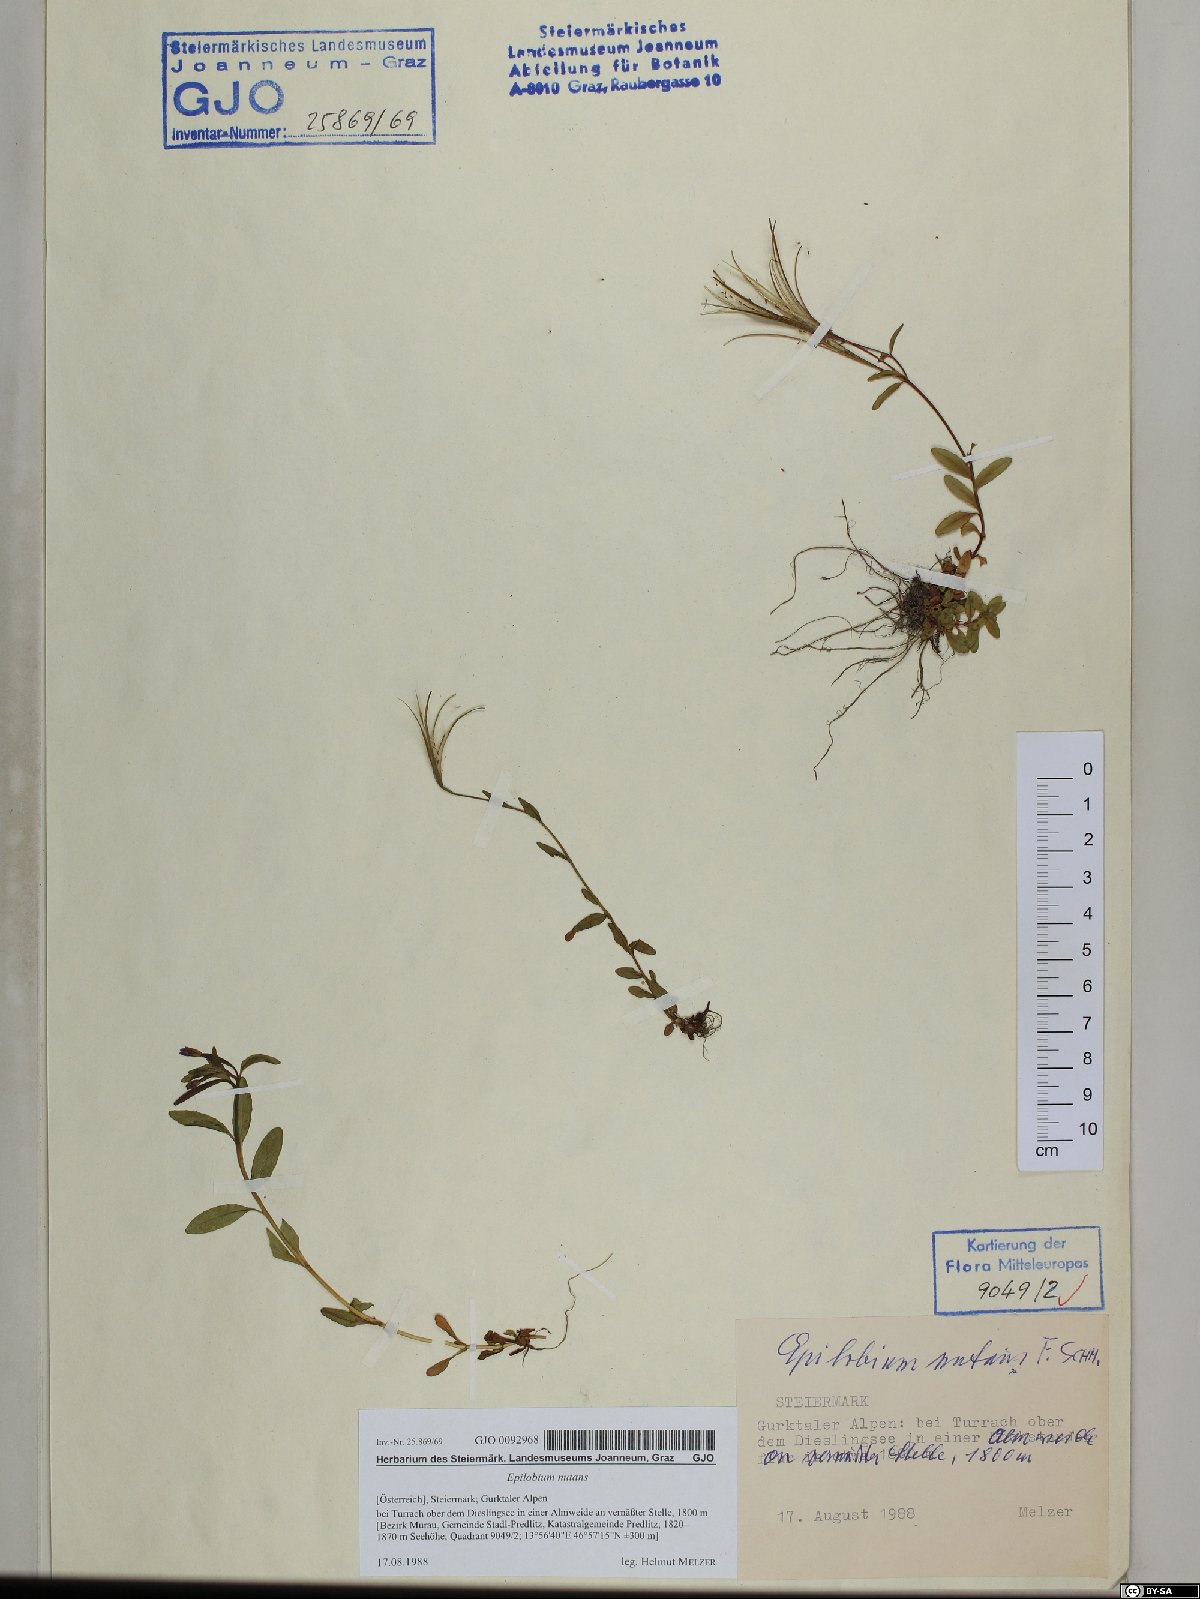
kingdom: Plantae
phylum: Tracheophyta
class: Magnoliopsida
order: Myrtales
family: Onagraceae
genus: Epilobium
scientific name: Epilobium nutans
